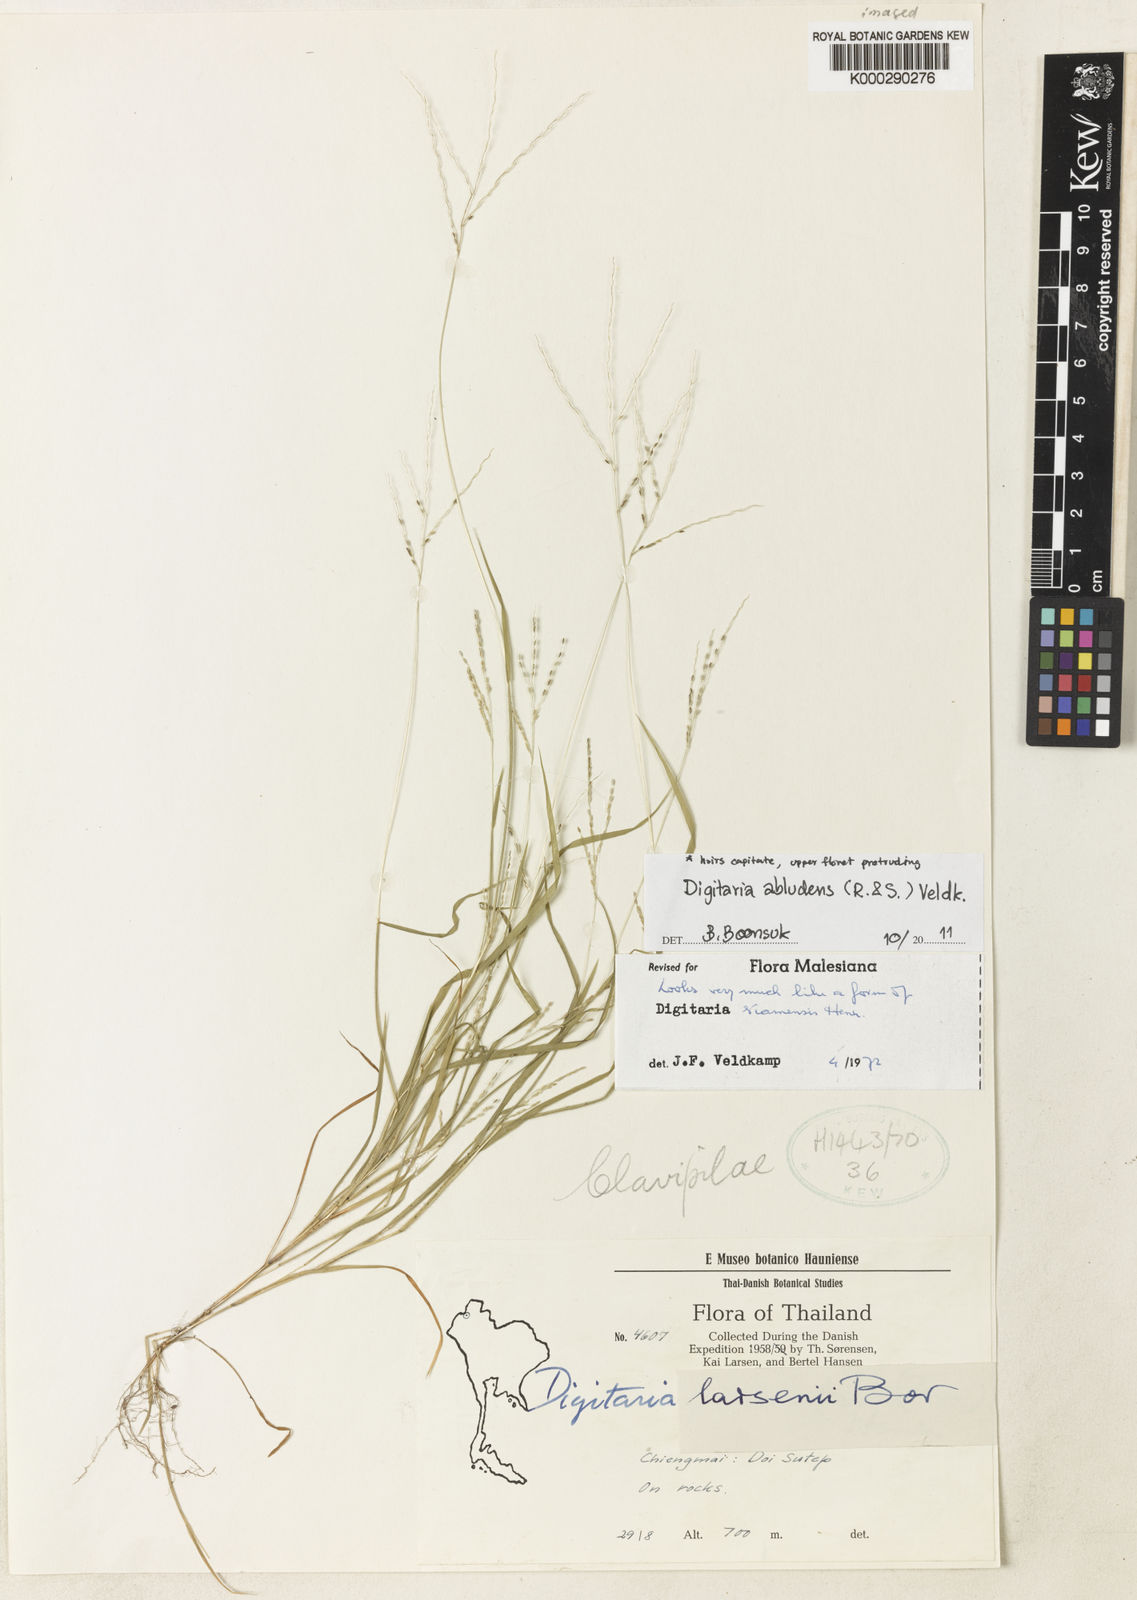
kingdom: Plantae
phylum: Tracheophyta
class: Liliopsida
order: Poales
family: Poaceae
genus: Digitaria
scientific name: Digitaria abludens
